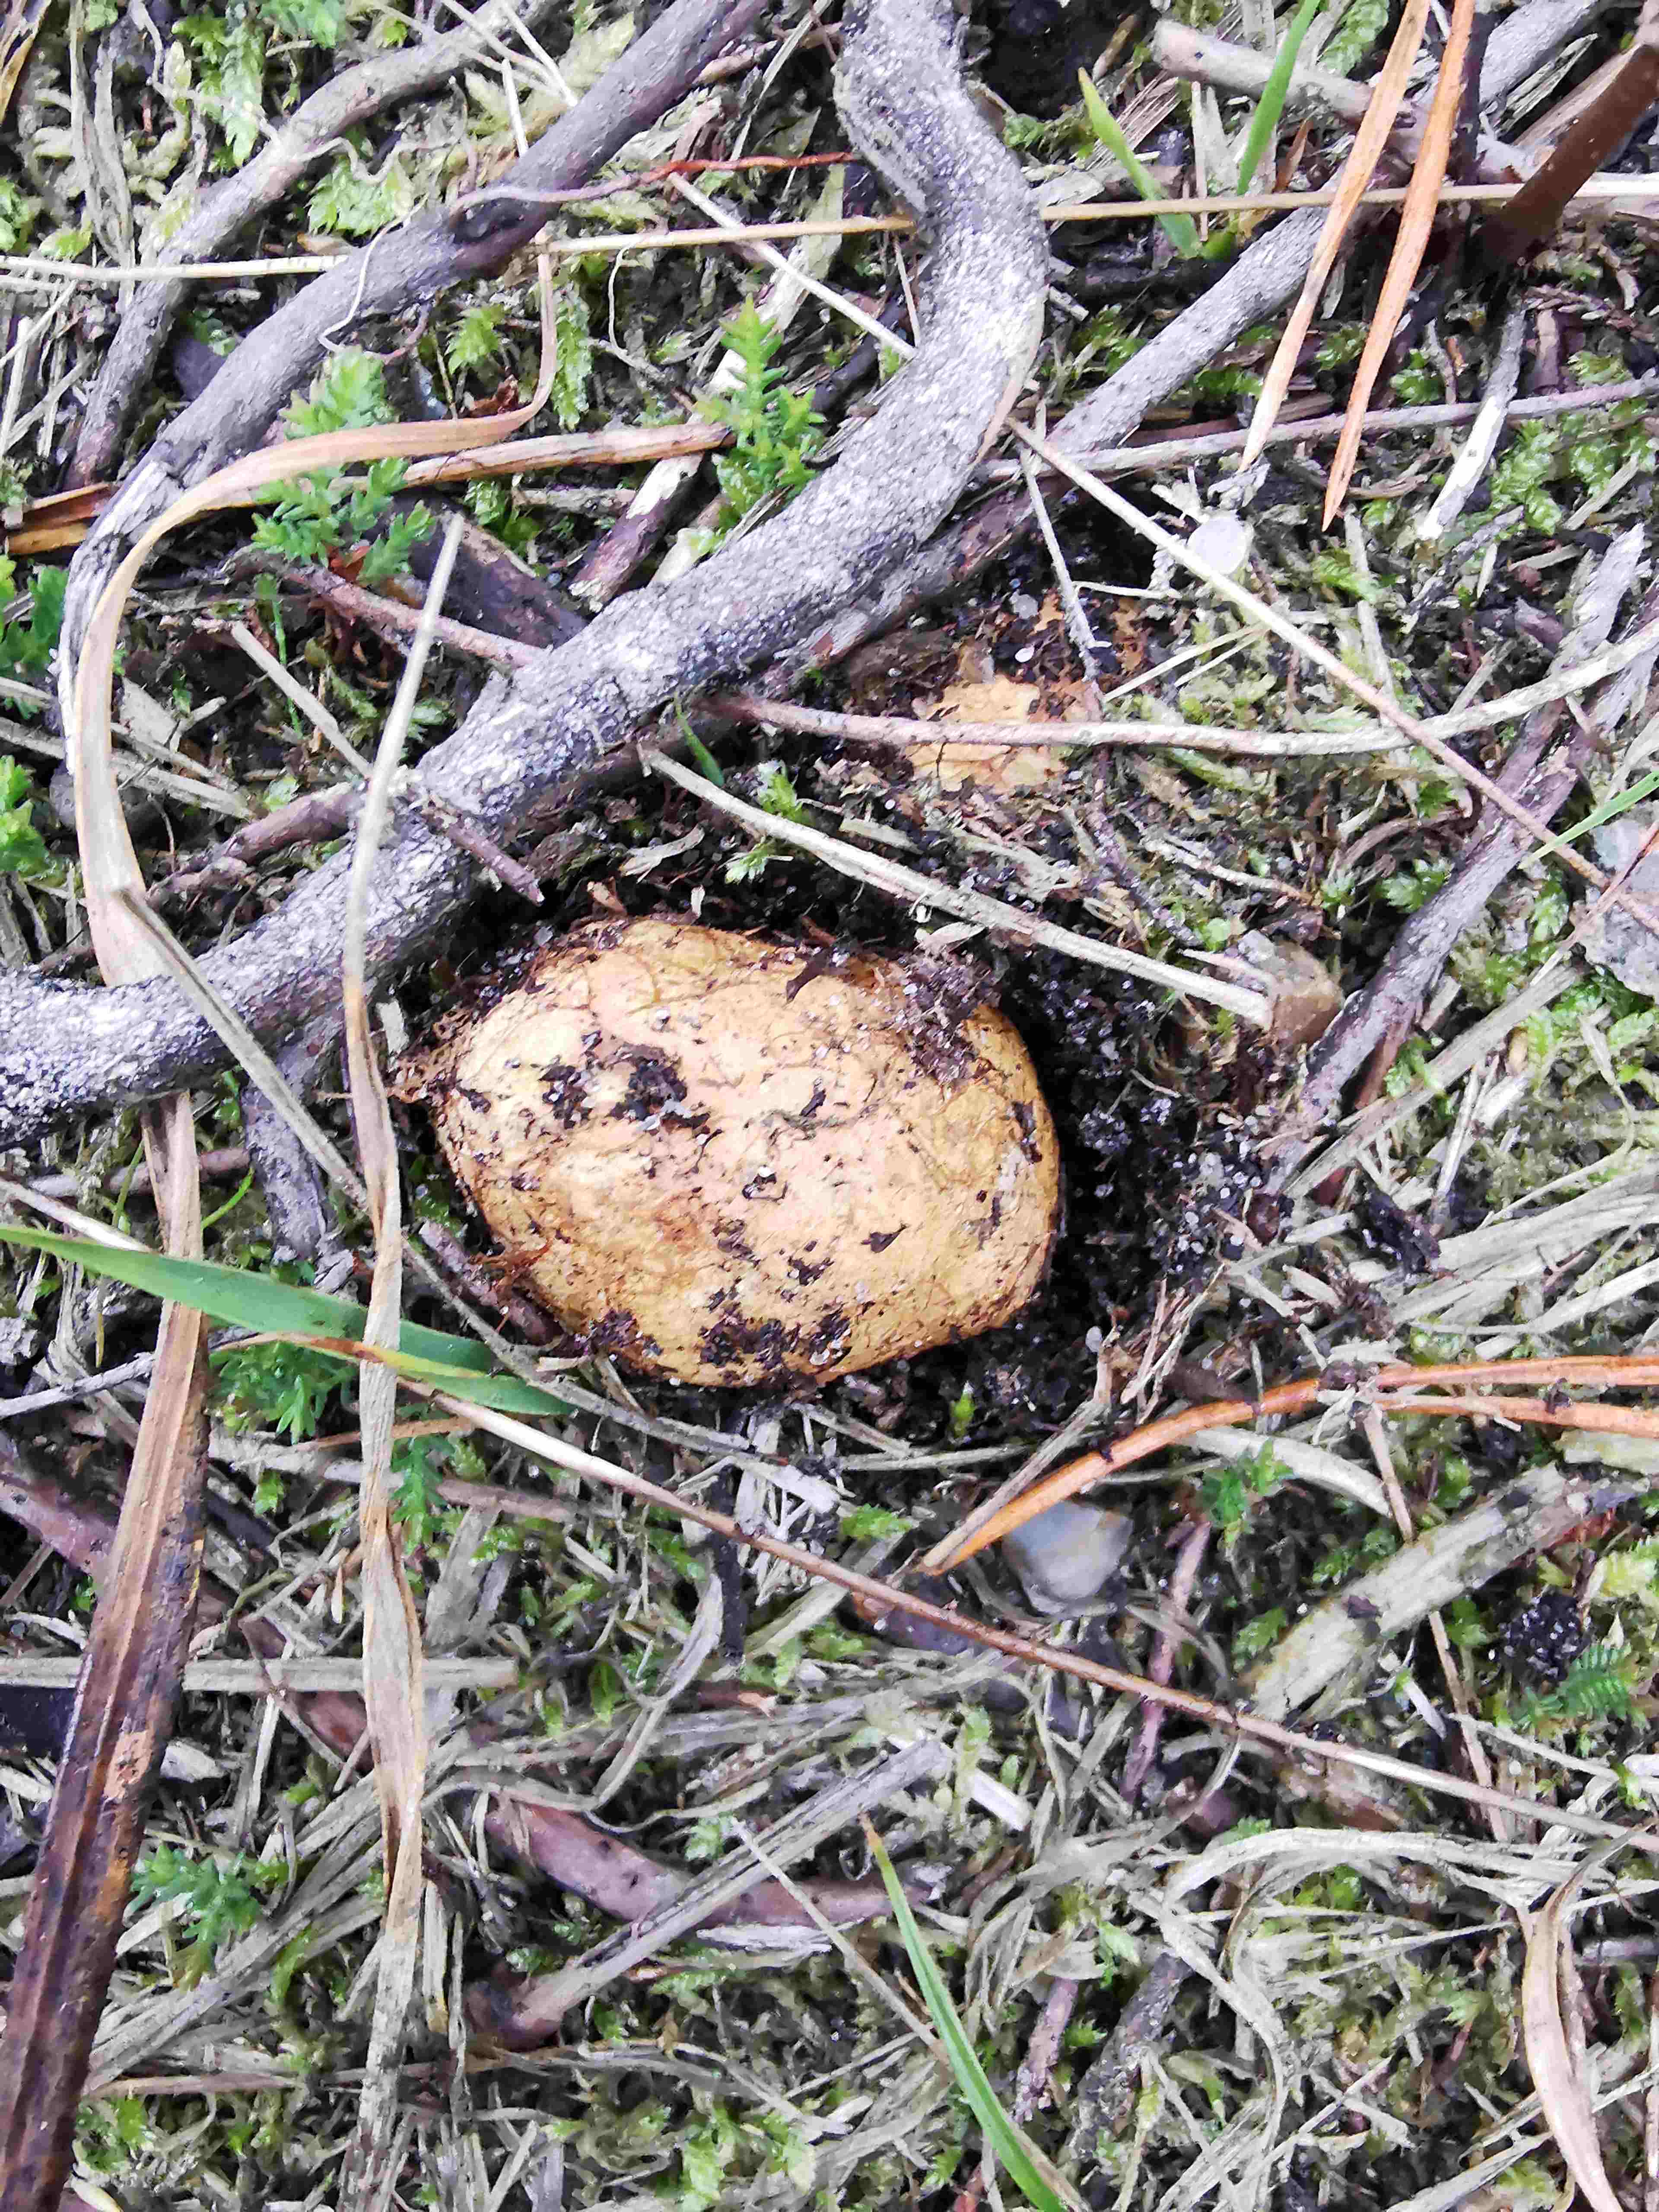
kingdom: Fungi
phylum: Basidiomycota
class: Agaricomycetes
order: Boletales
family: Rhizopogonaceae
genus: Rhizopogon
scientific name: Rhizopogon obtextus
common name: gul skægtrøffel
